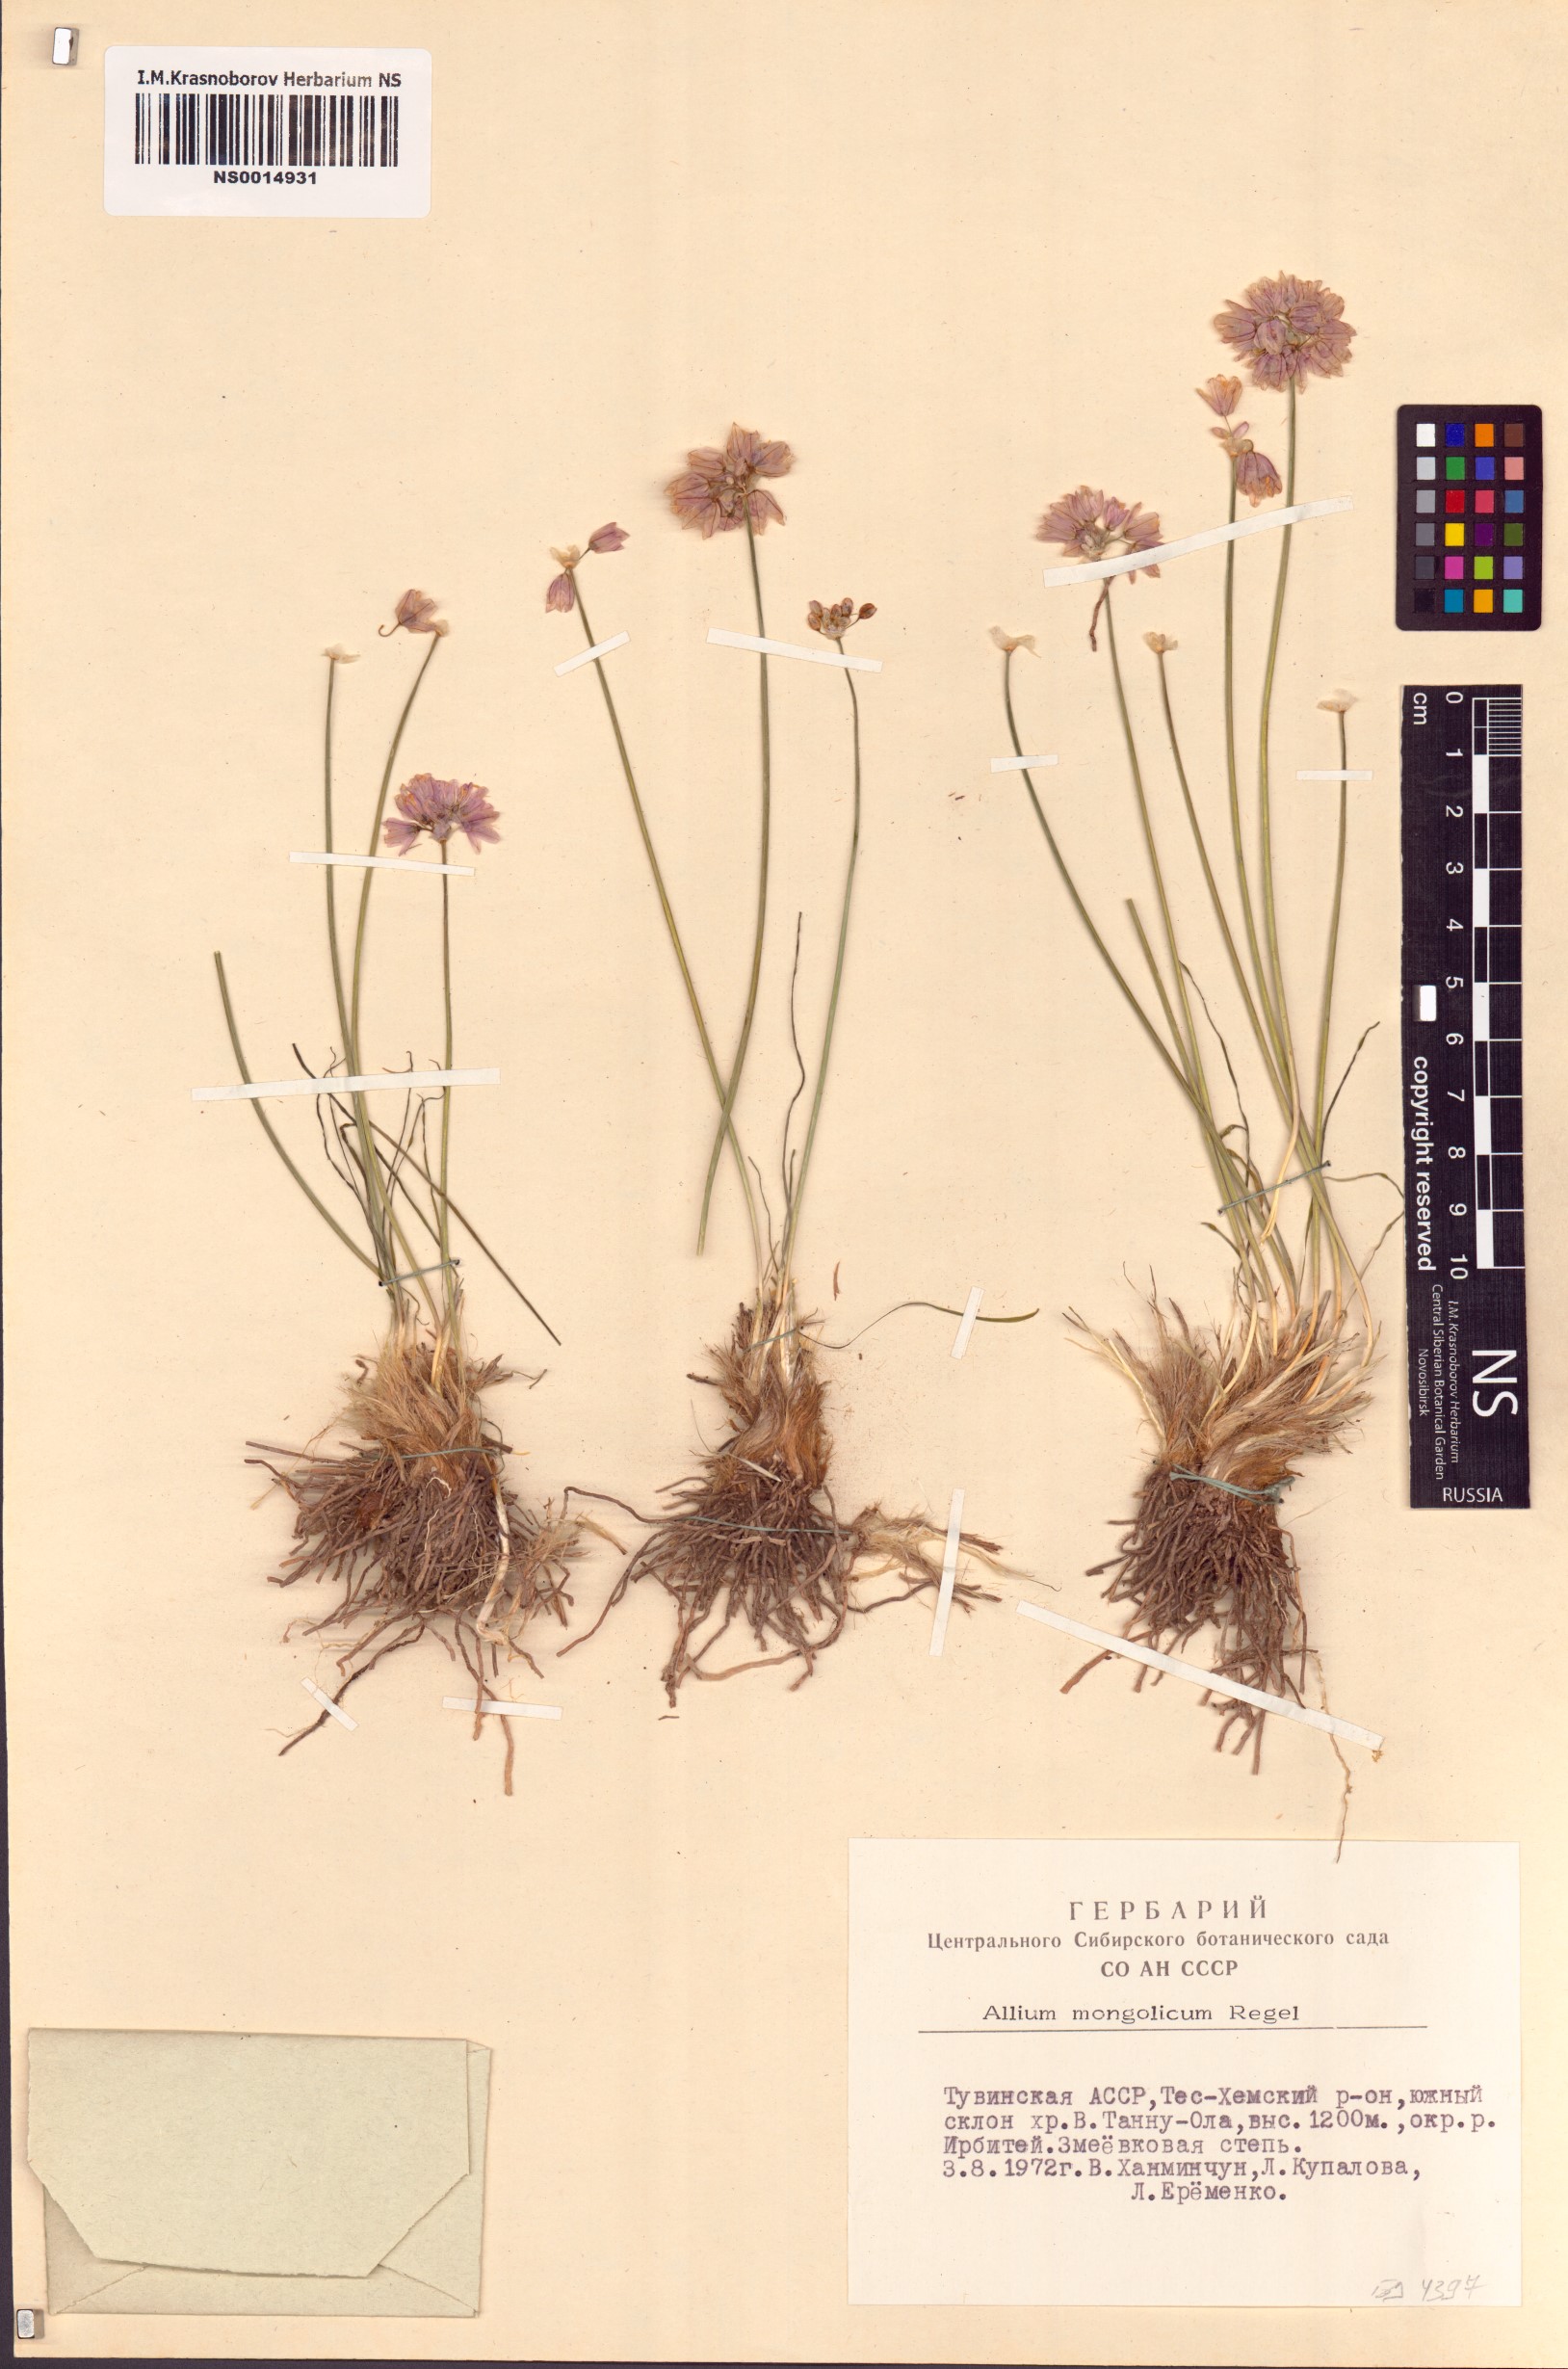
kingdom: Plantae
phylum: Tracheophyta
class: Liliopsida
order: Asparagales
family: Amaryllidaceae
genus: Allium
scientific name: Allium mongolicum
